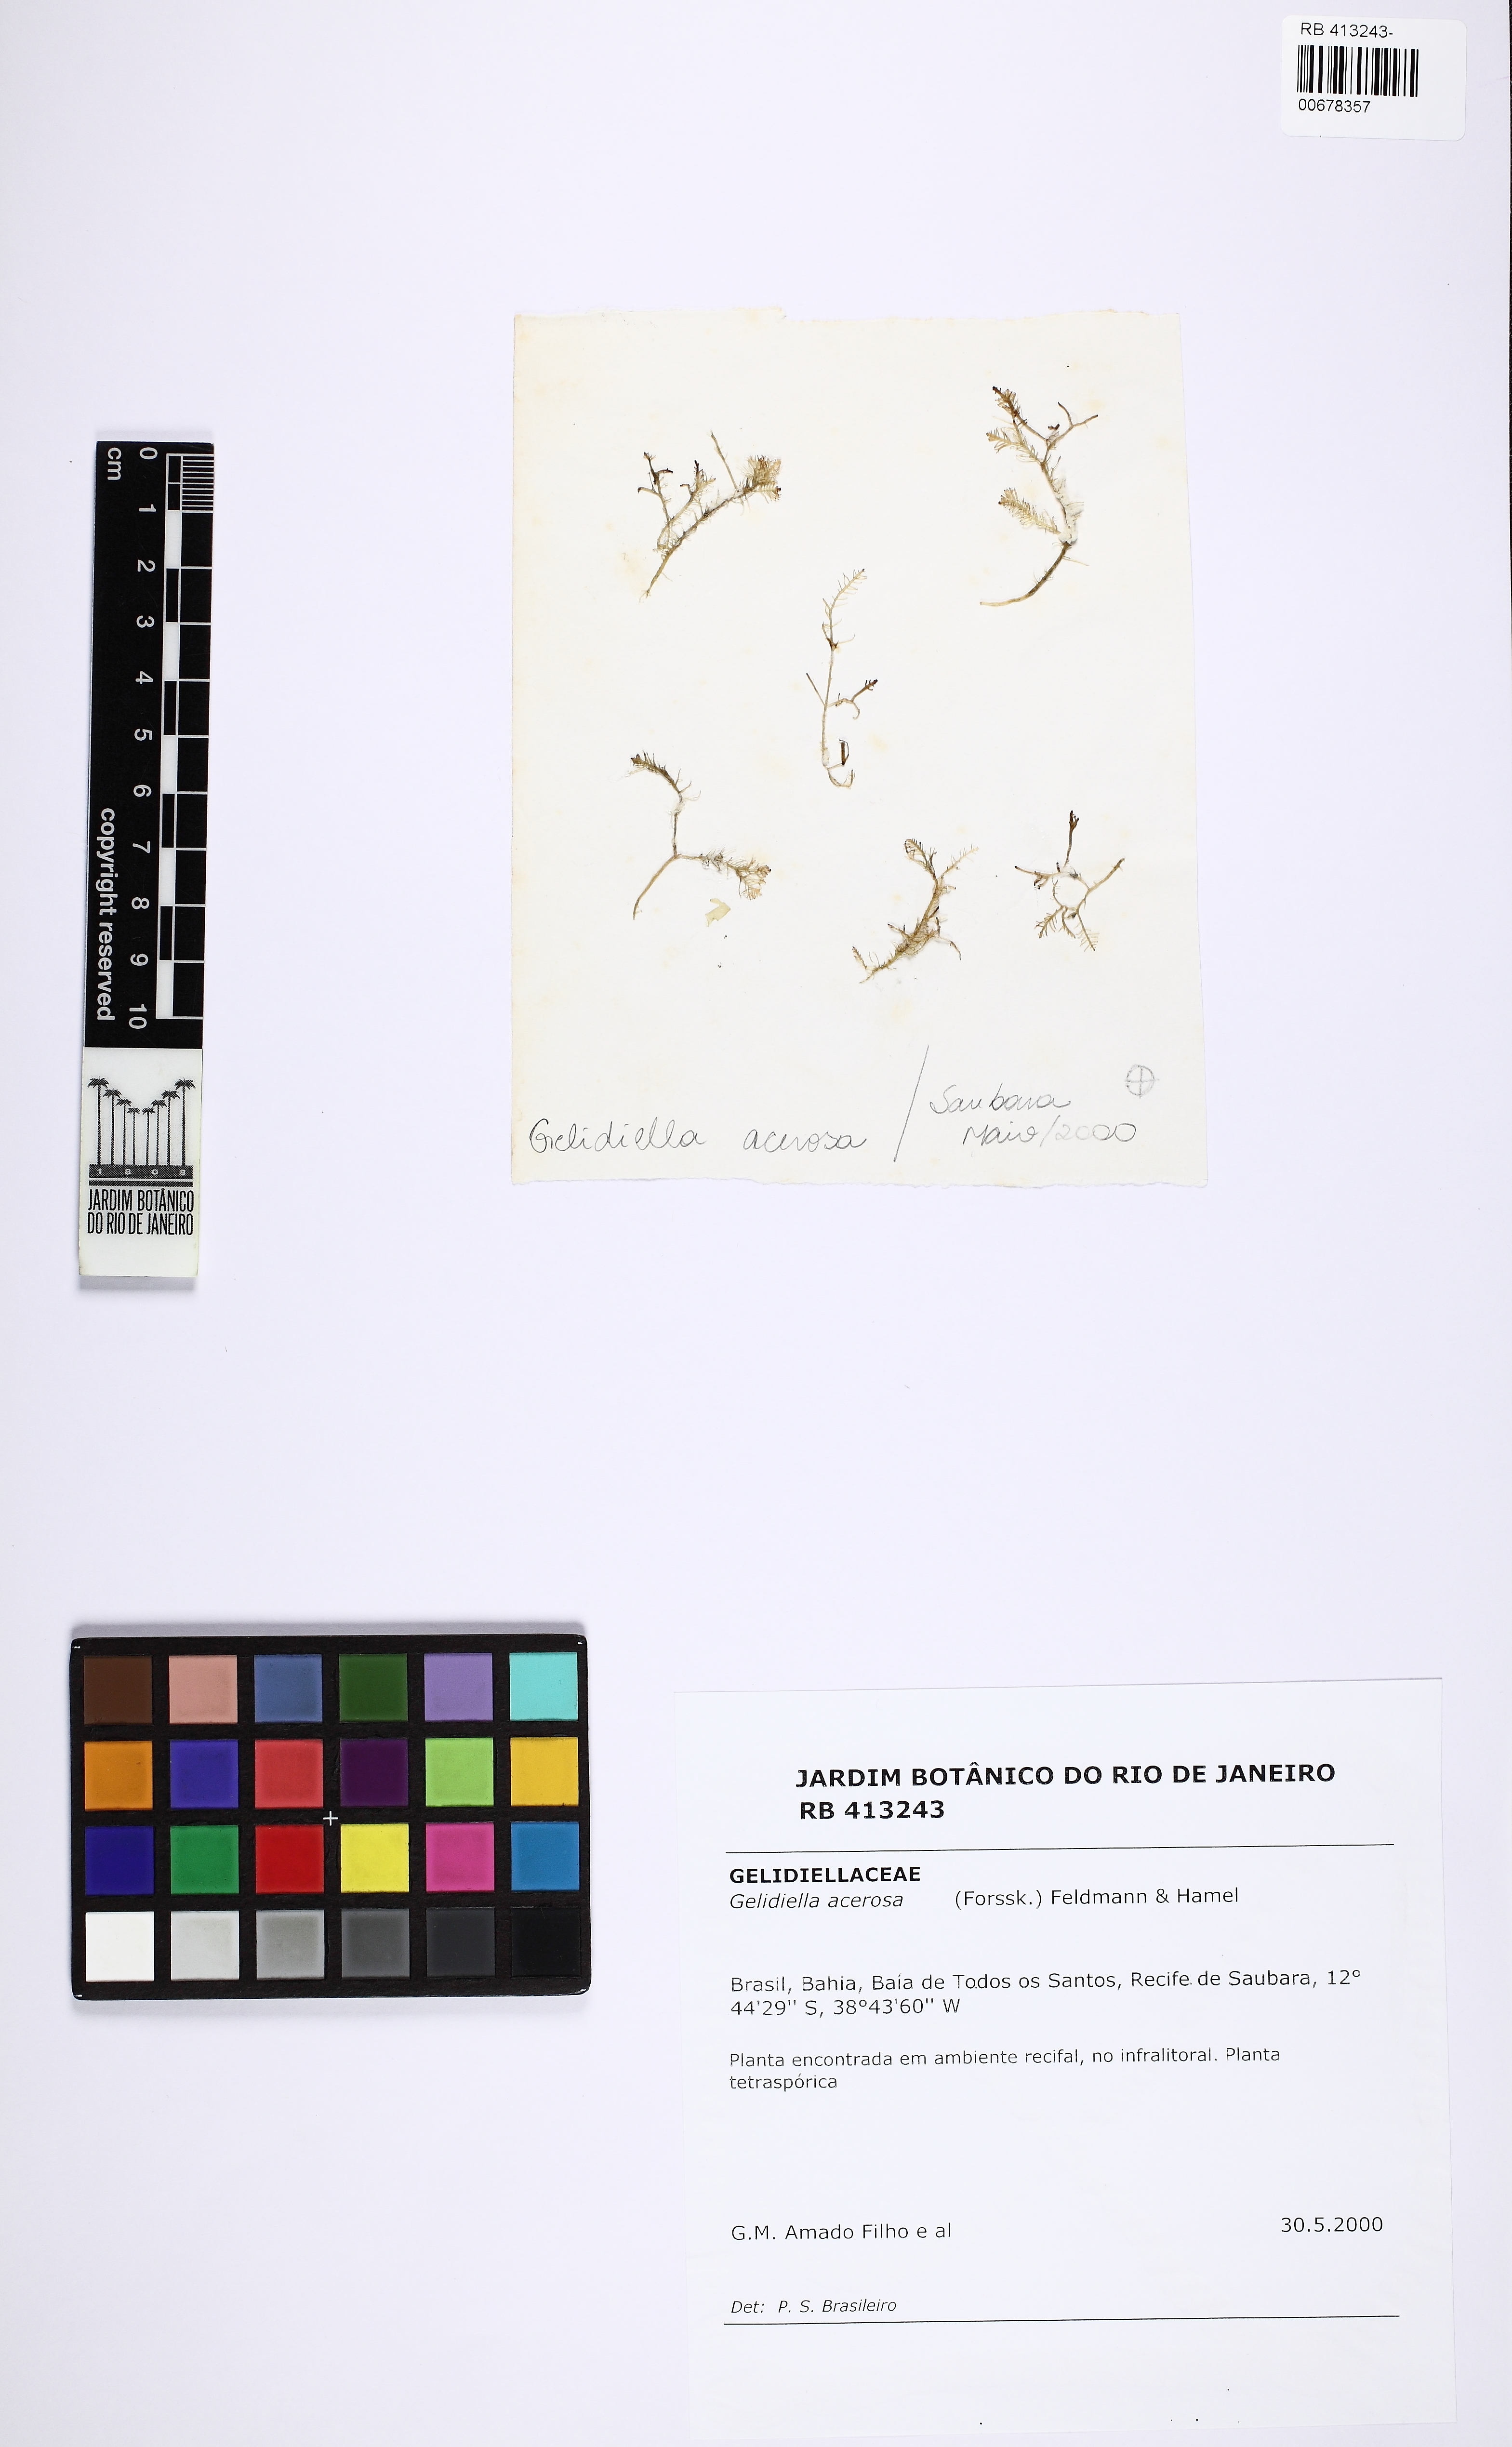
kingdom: Plantae
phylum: Rhodophyta
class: Florideophyceae
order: Gelidiales
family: Gelidiellaceae
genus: Gelidiella
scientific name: Gelidiella acerosa
